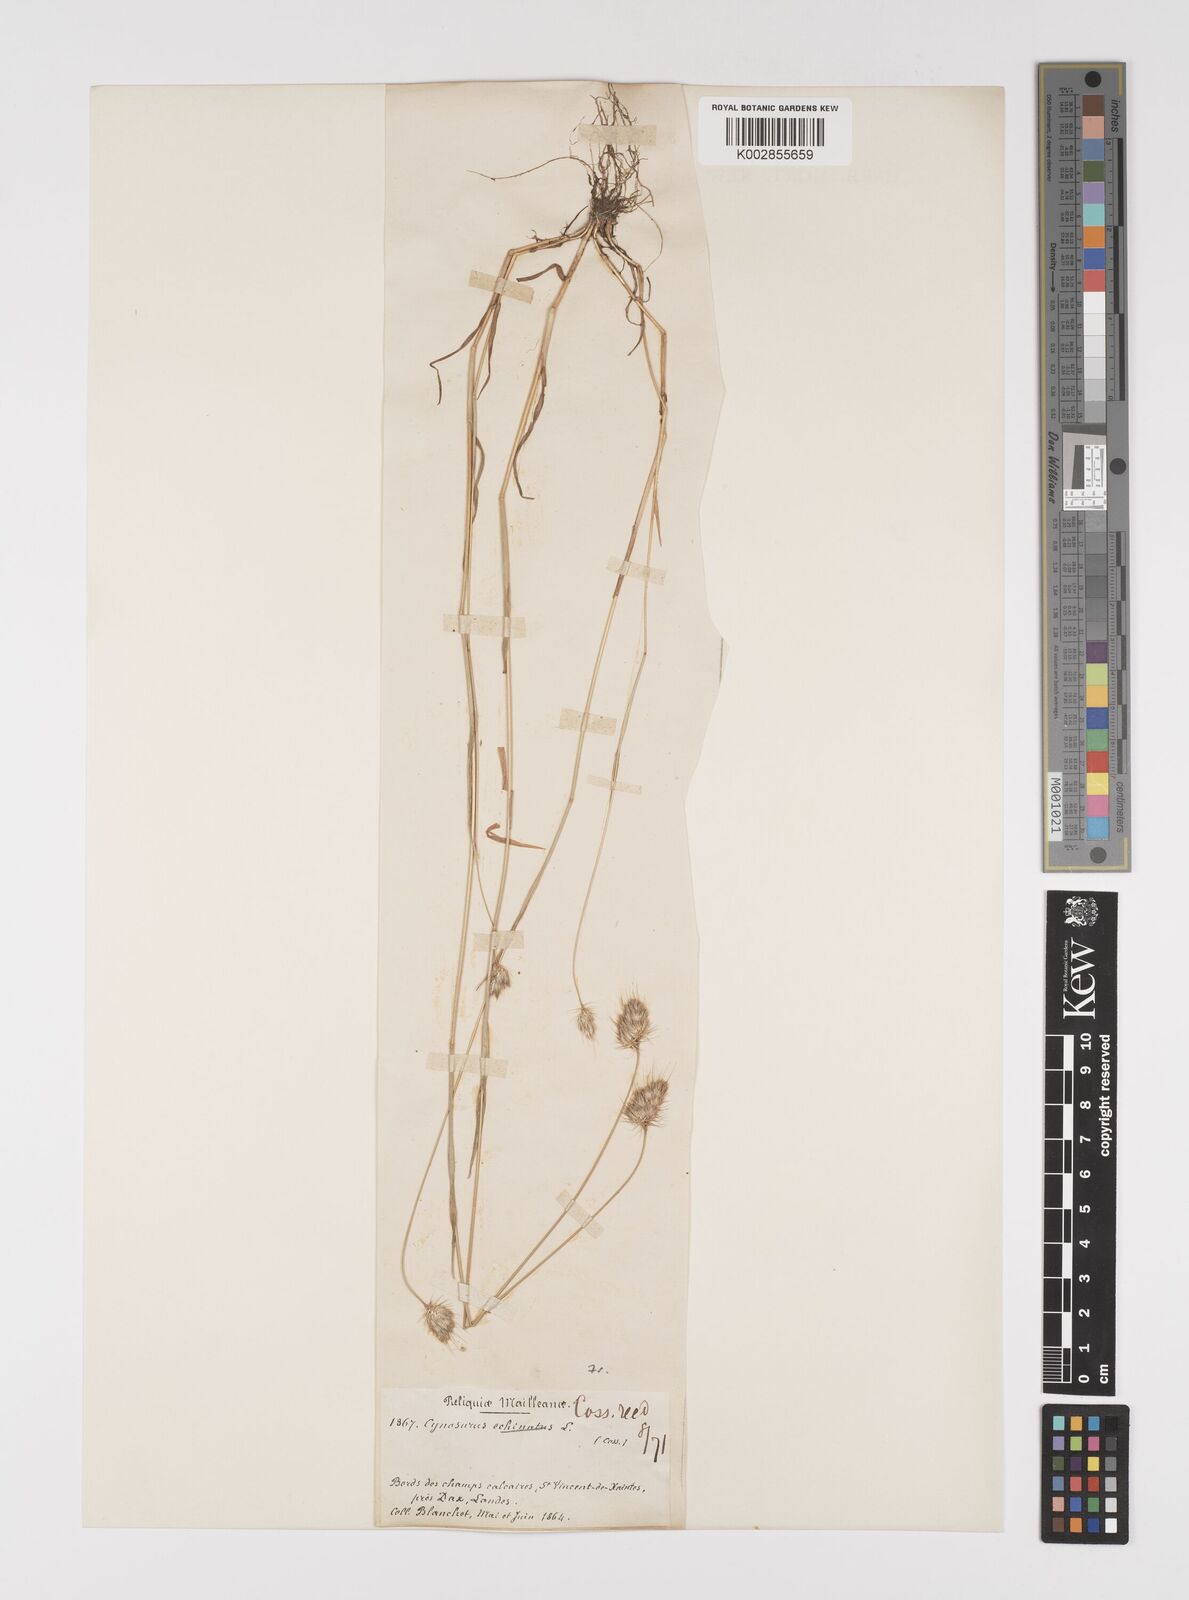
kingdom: Plantae
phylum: Tracheophyta
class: Liliopsida
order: Poales
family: Poaceae
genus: Cynosurus
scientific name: Cynosurus echinatus
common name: Rough dog's-tail
